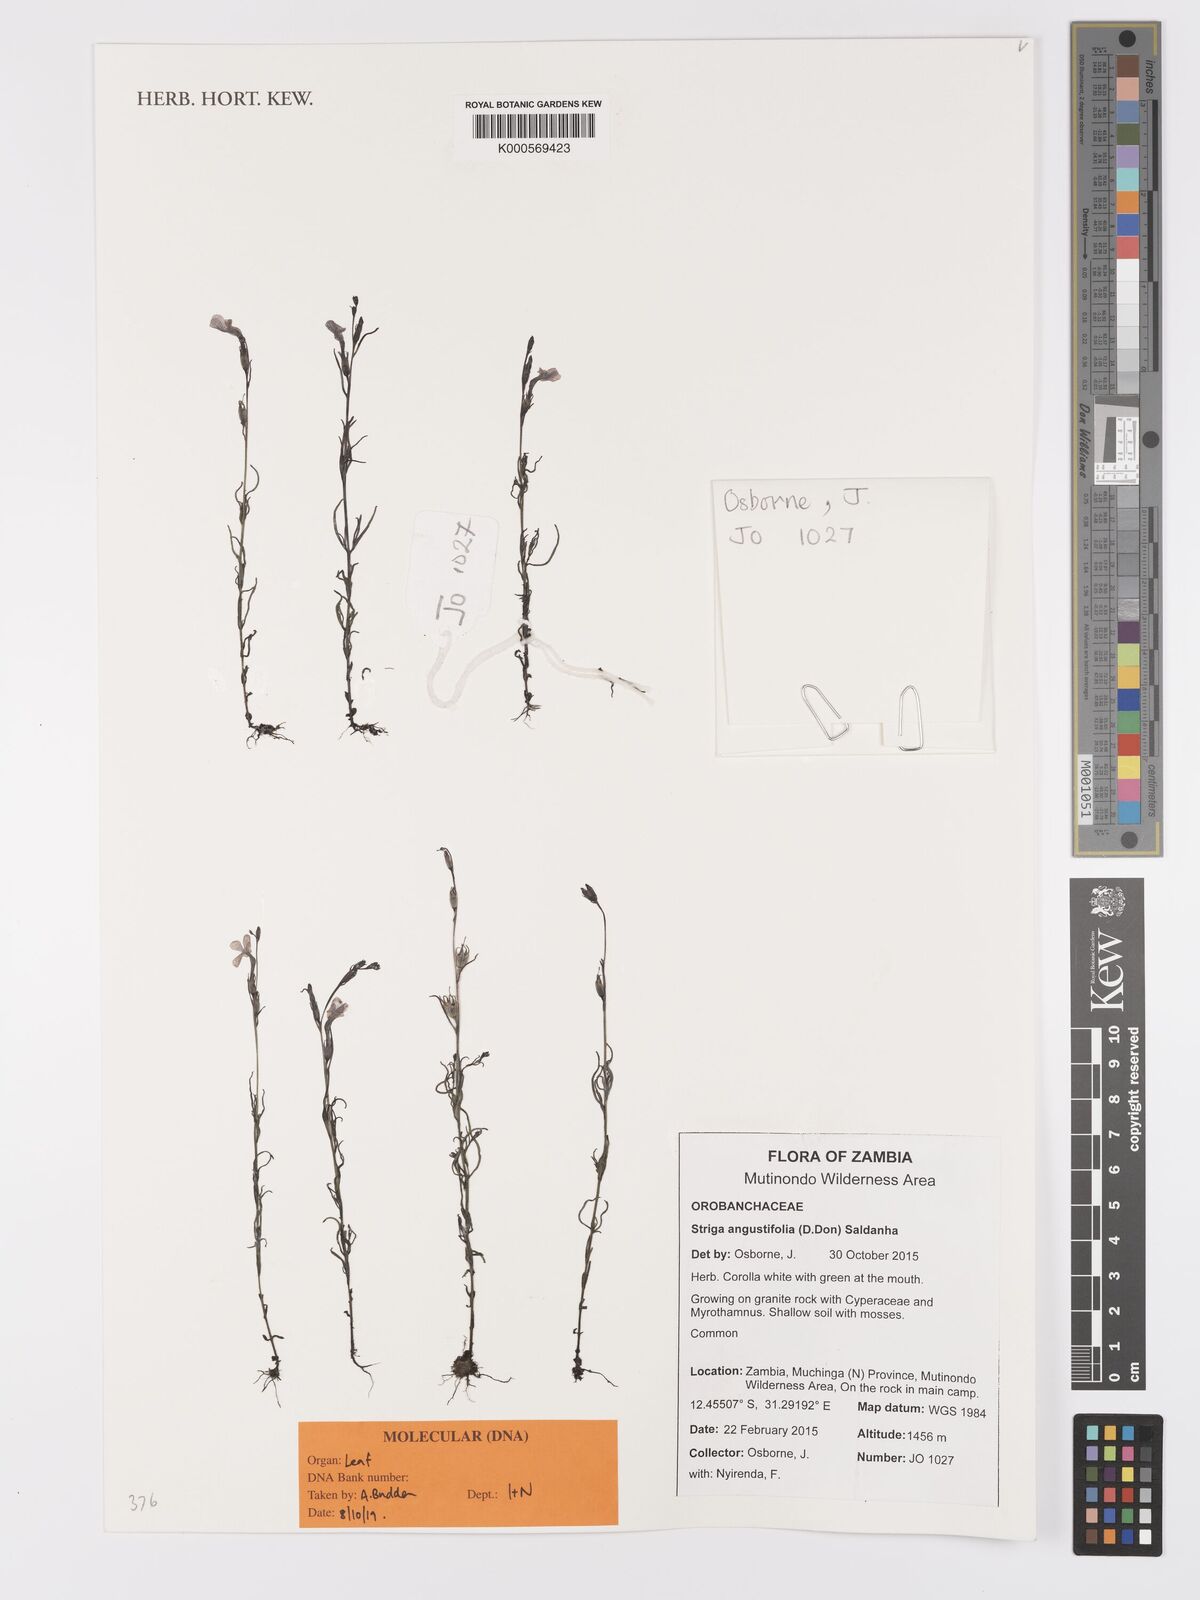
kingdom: Plantae
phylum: Tracheophyta
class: Magnoliopsida
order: Lamiales
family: Orobanchaceae
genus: Striga
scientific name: Striga angustifolia
